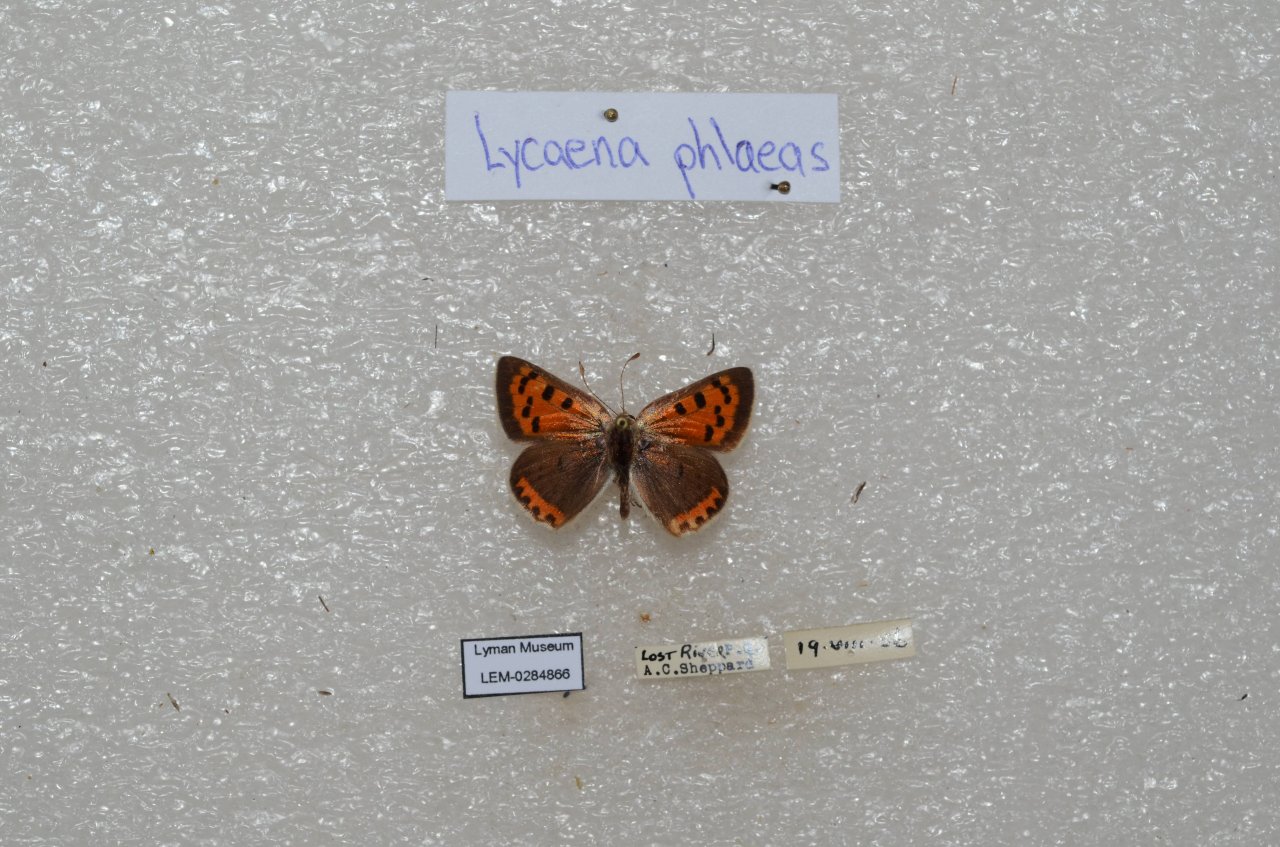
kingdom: Animalia
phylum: Arthropoda
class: Insecta
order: Lepidoptera
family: Lycaenidae
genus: Lycaena
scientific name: Lycaena phlaeas
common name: American Copper
